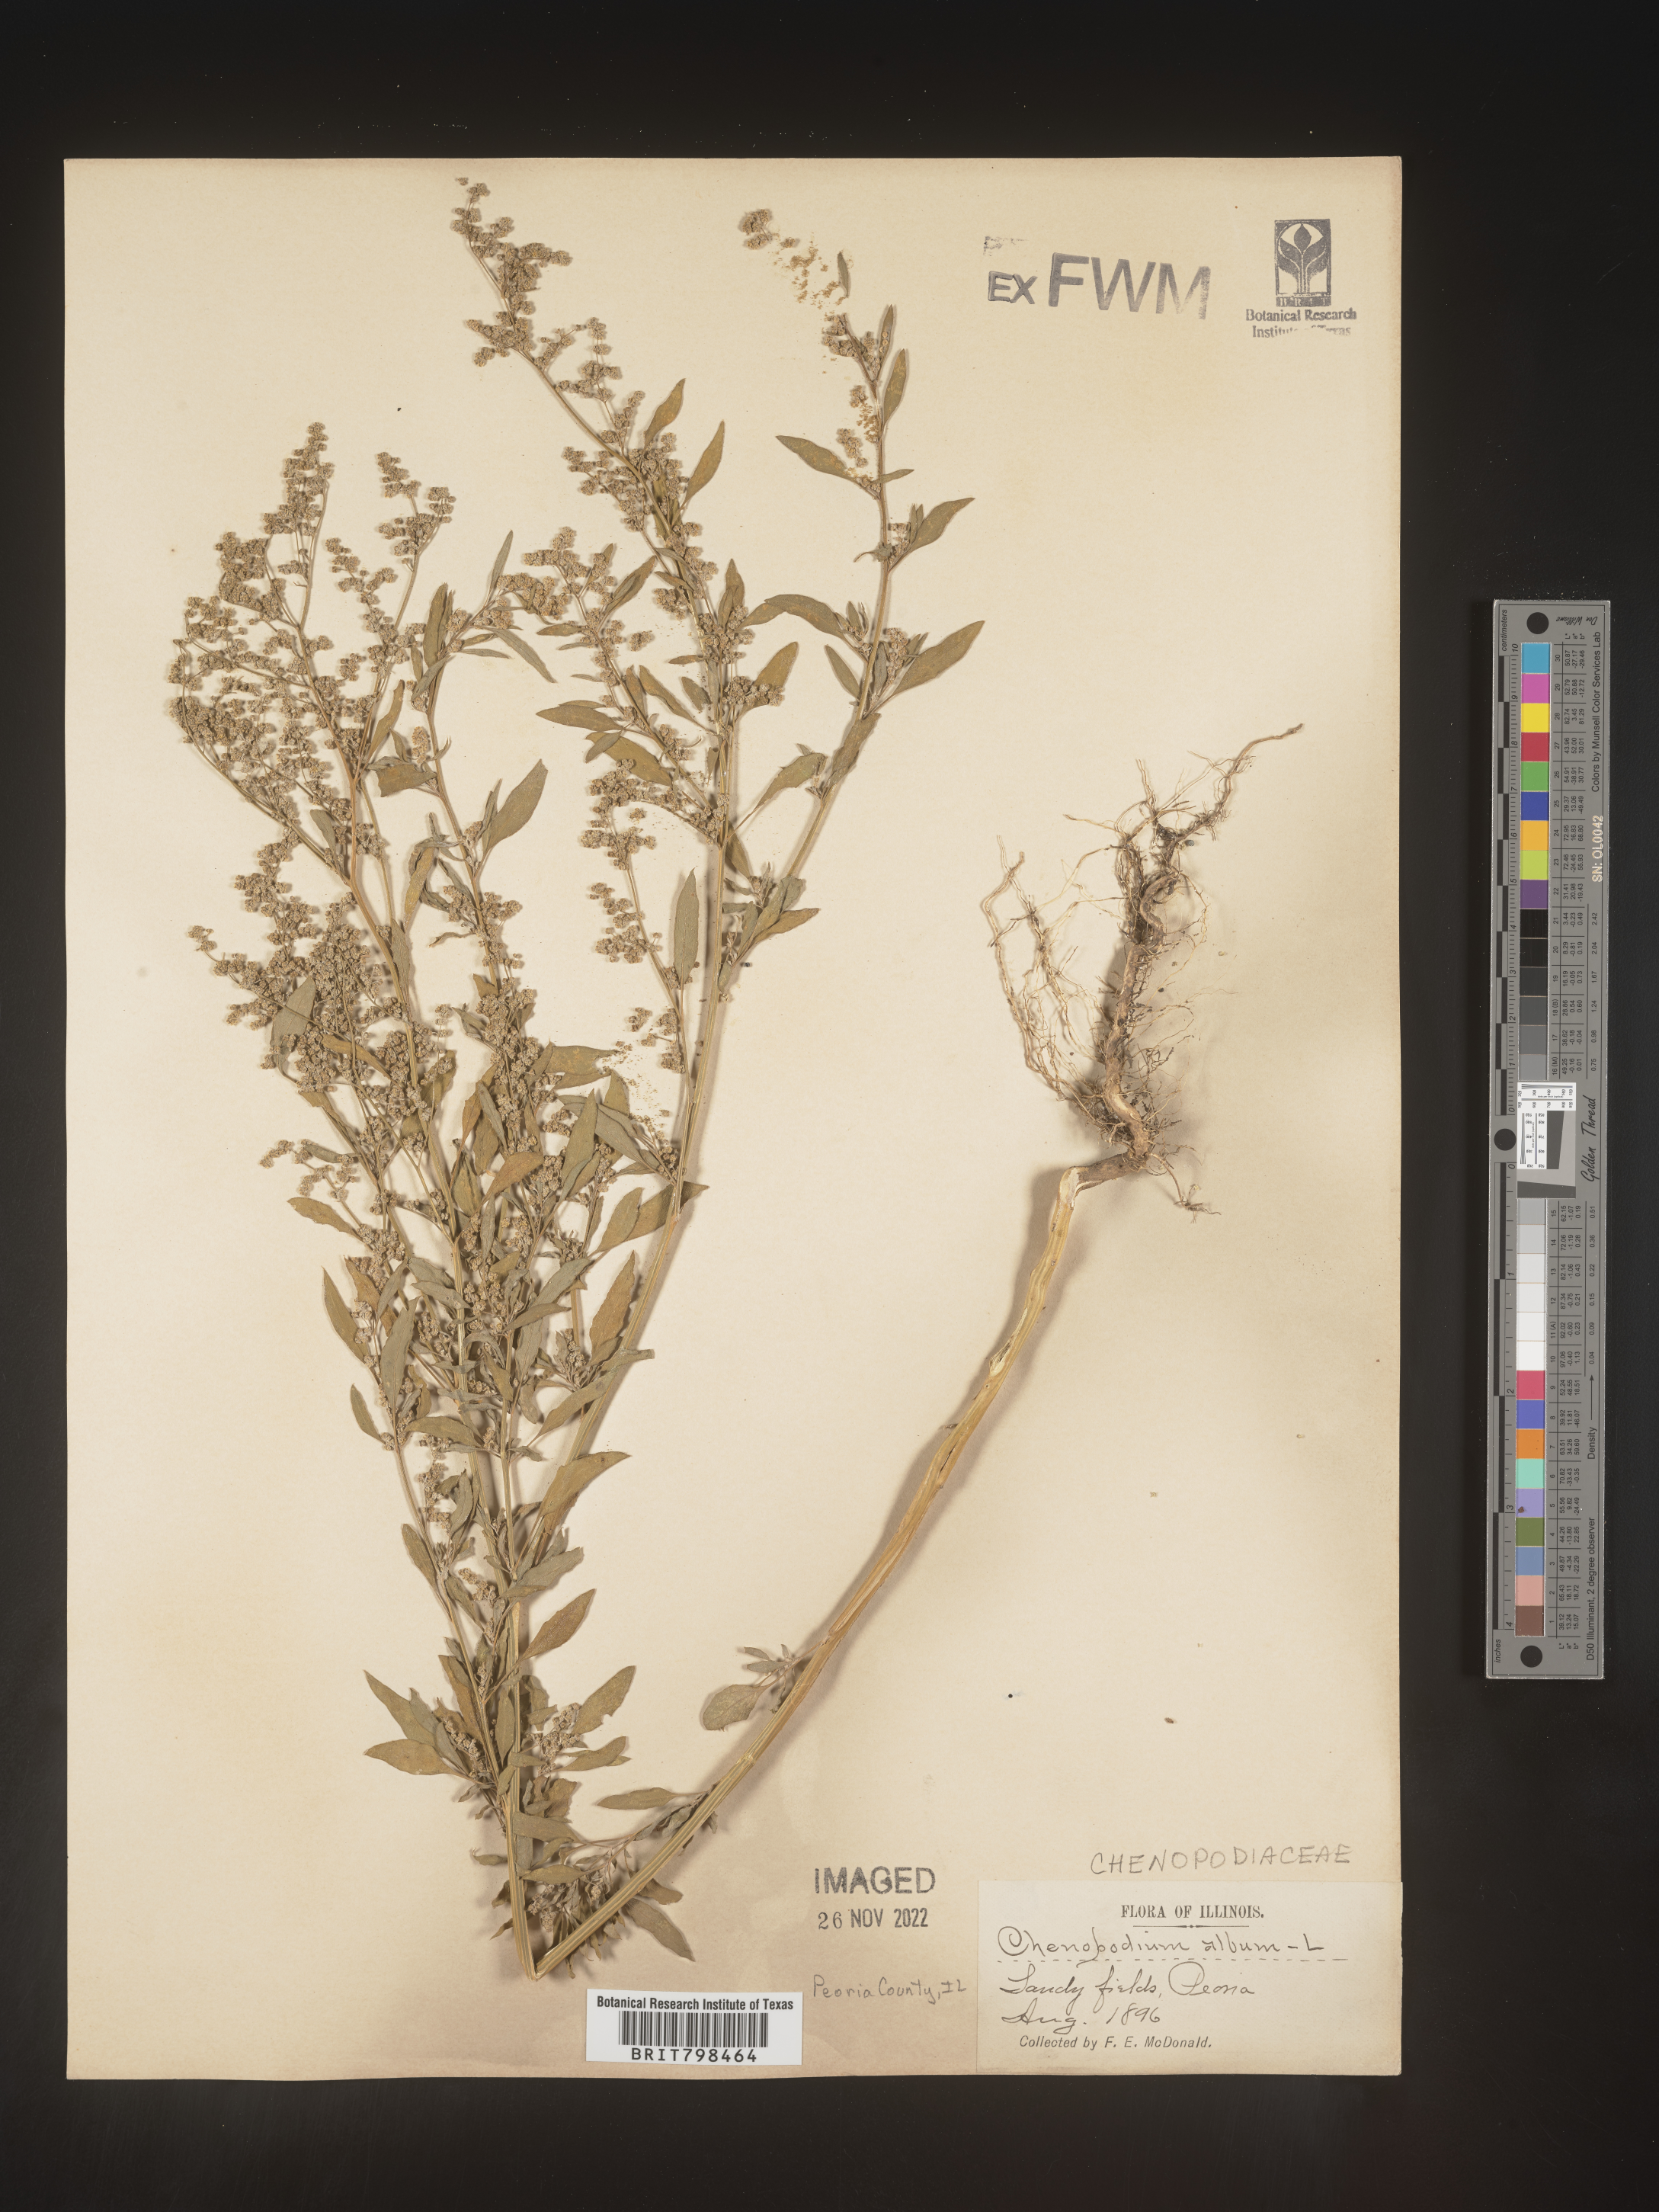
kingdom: Plantae
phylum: Tracheophyta
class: Magnoliopsida
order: Caryophyllales
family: Amaranthaceae
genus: Chenopodium
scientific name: Chenopodium album
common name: Fat-hen
